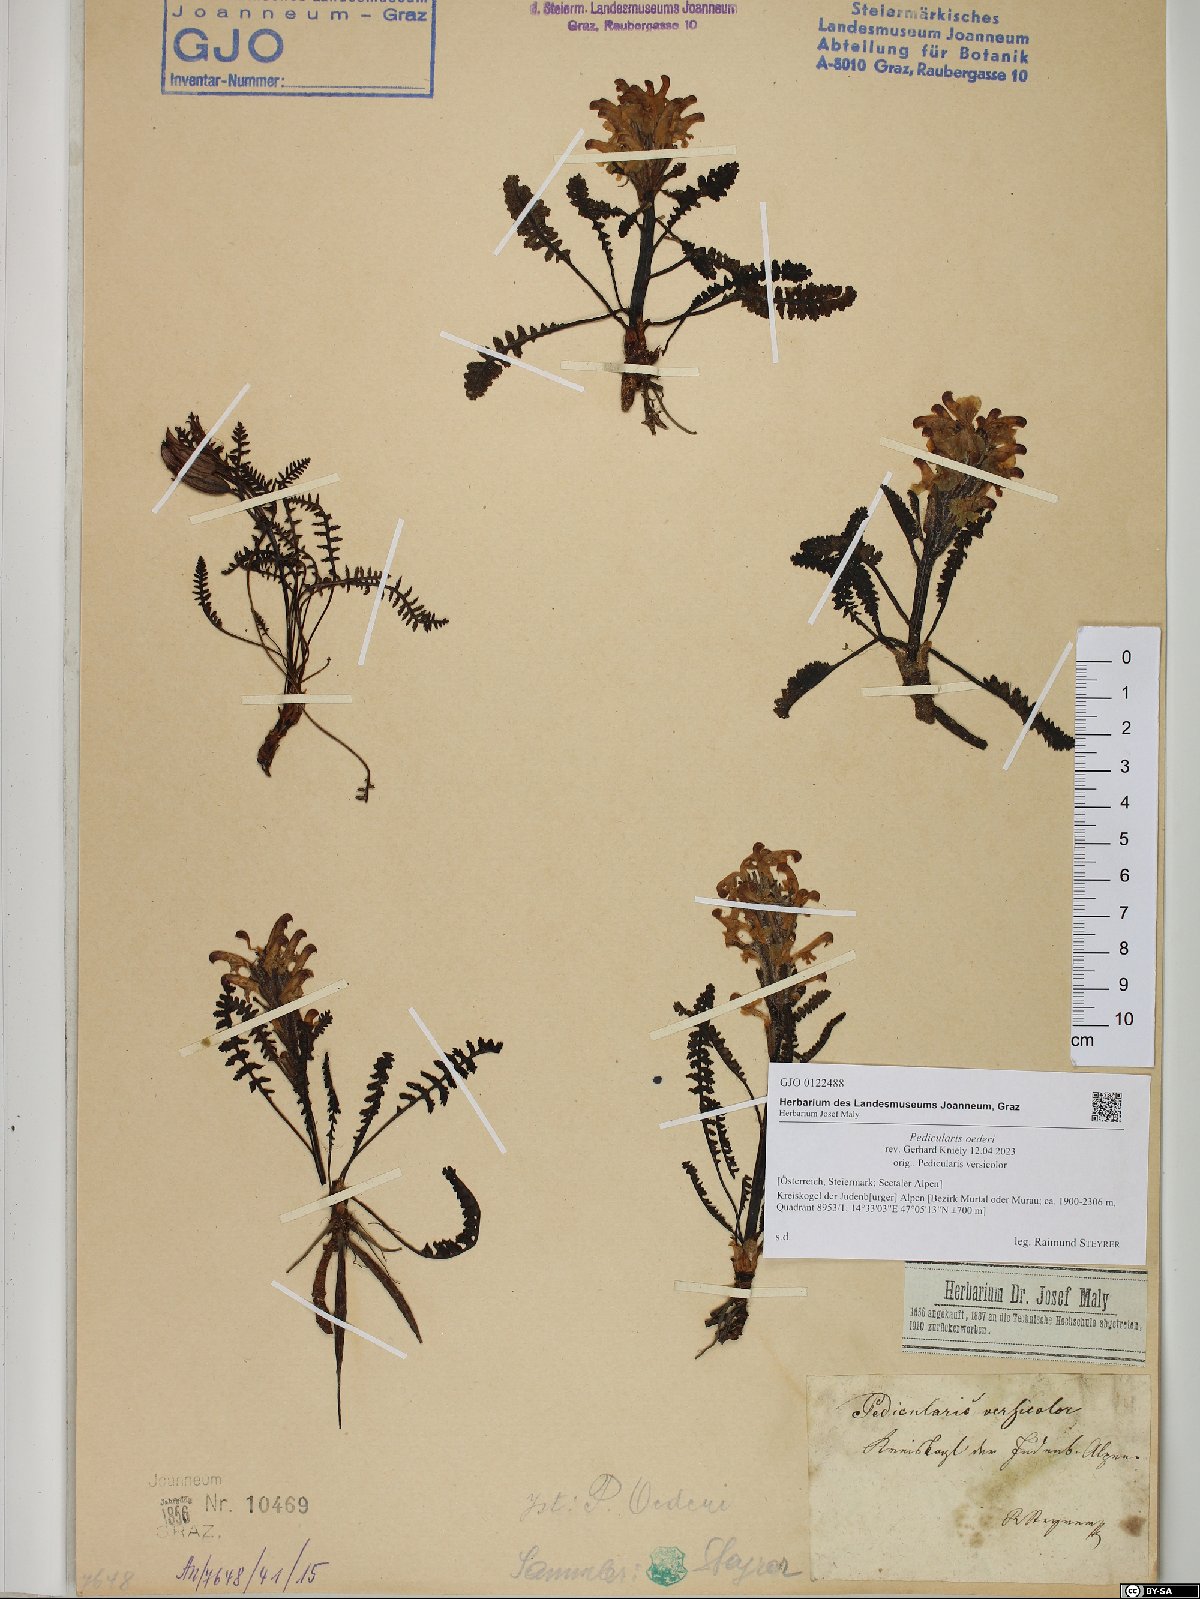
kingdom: Plantae
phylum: Tracheophyta
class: Magnoliopsida
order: Lamiales
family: Orobanchaceae
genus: Pedicularis
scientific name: Pedicularis oederi
